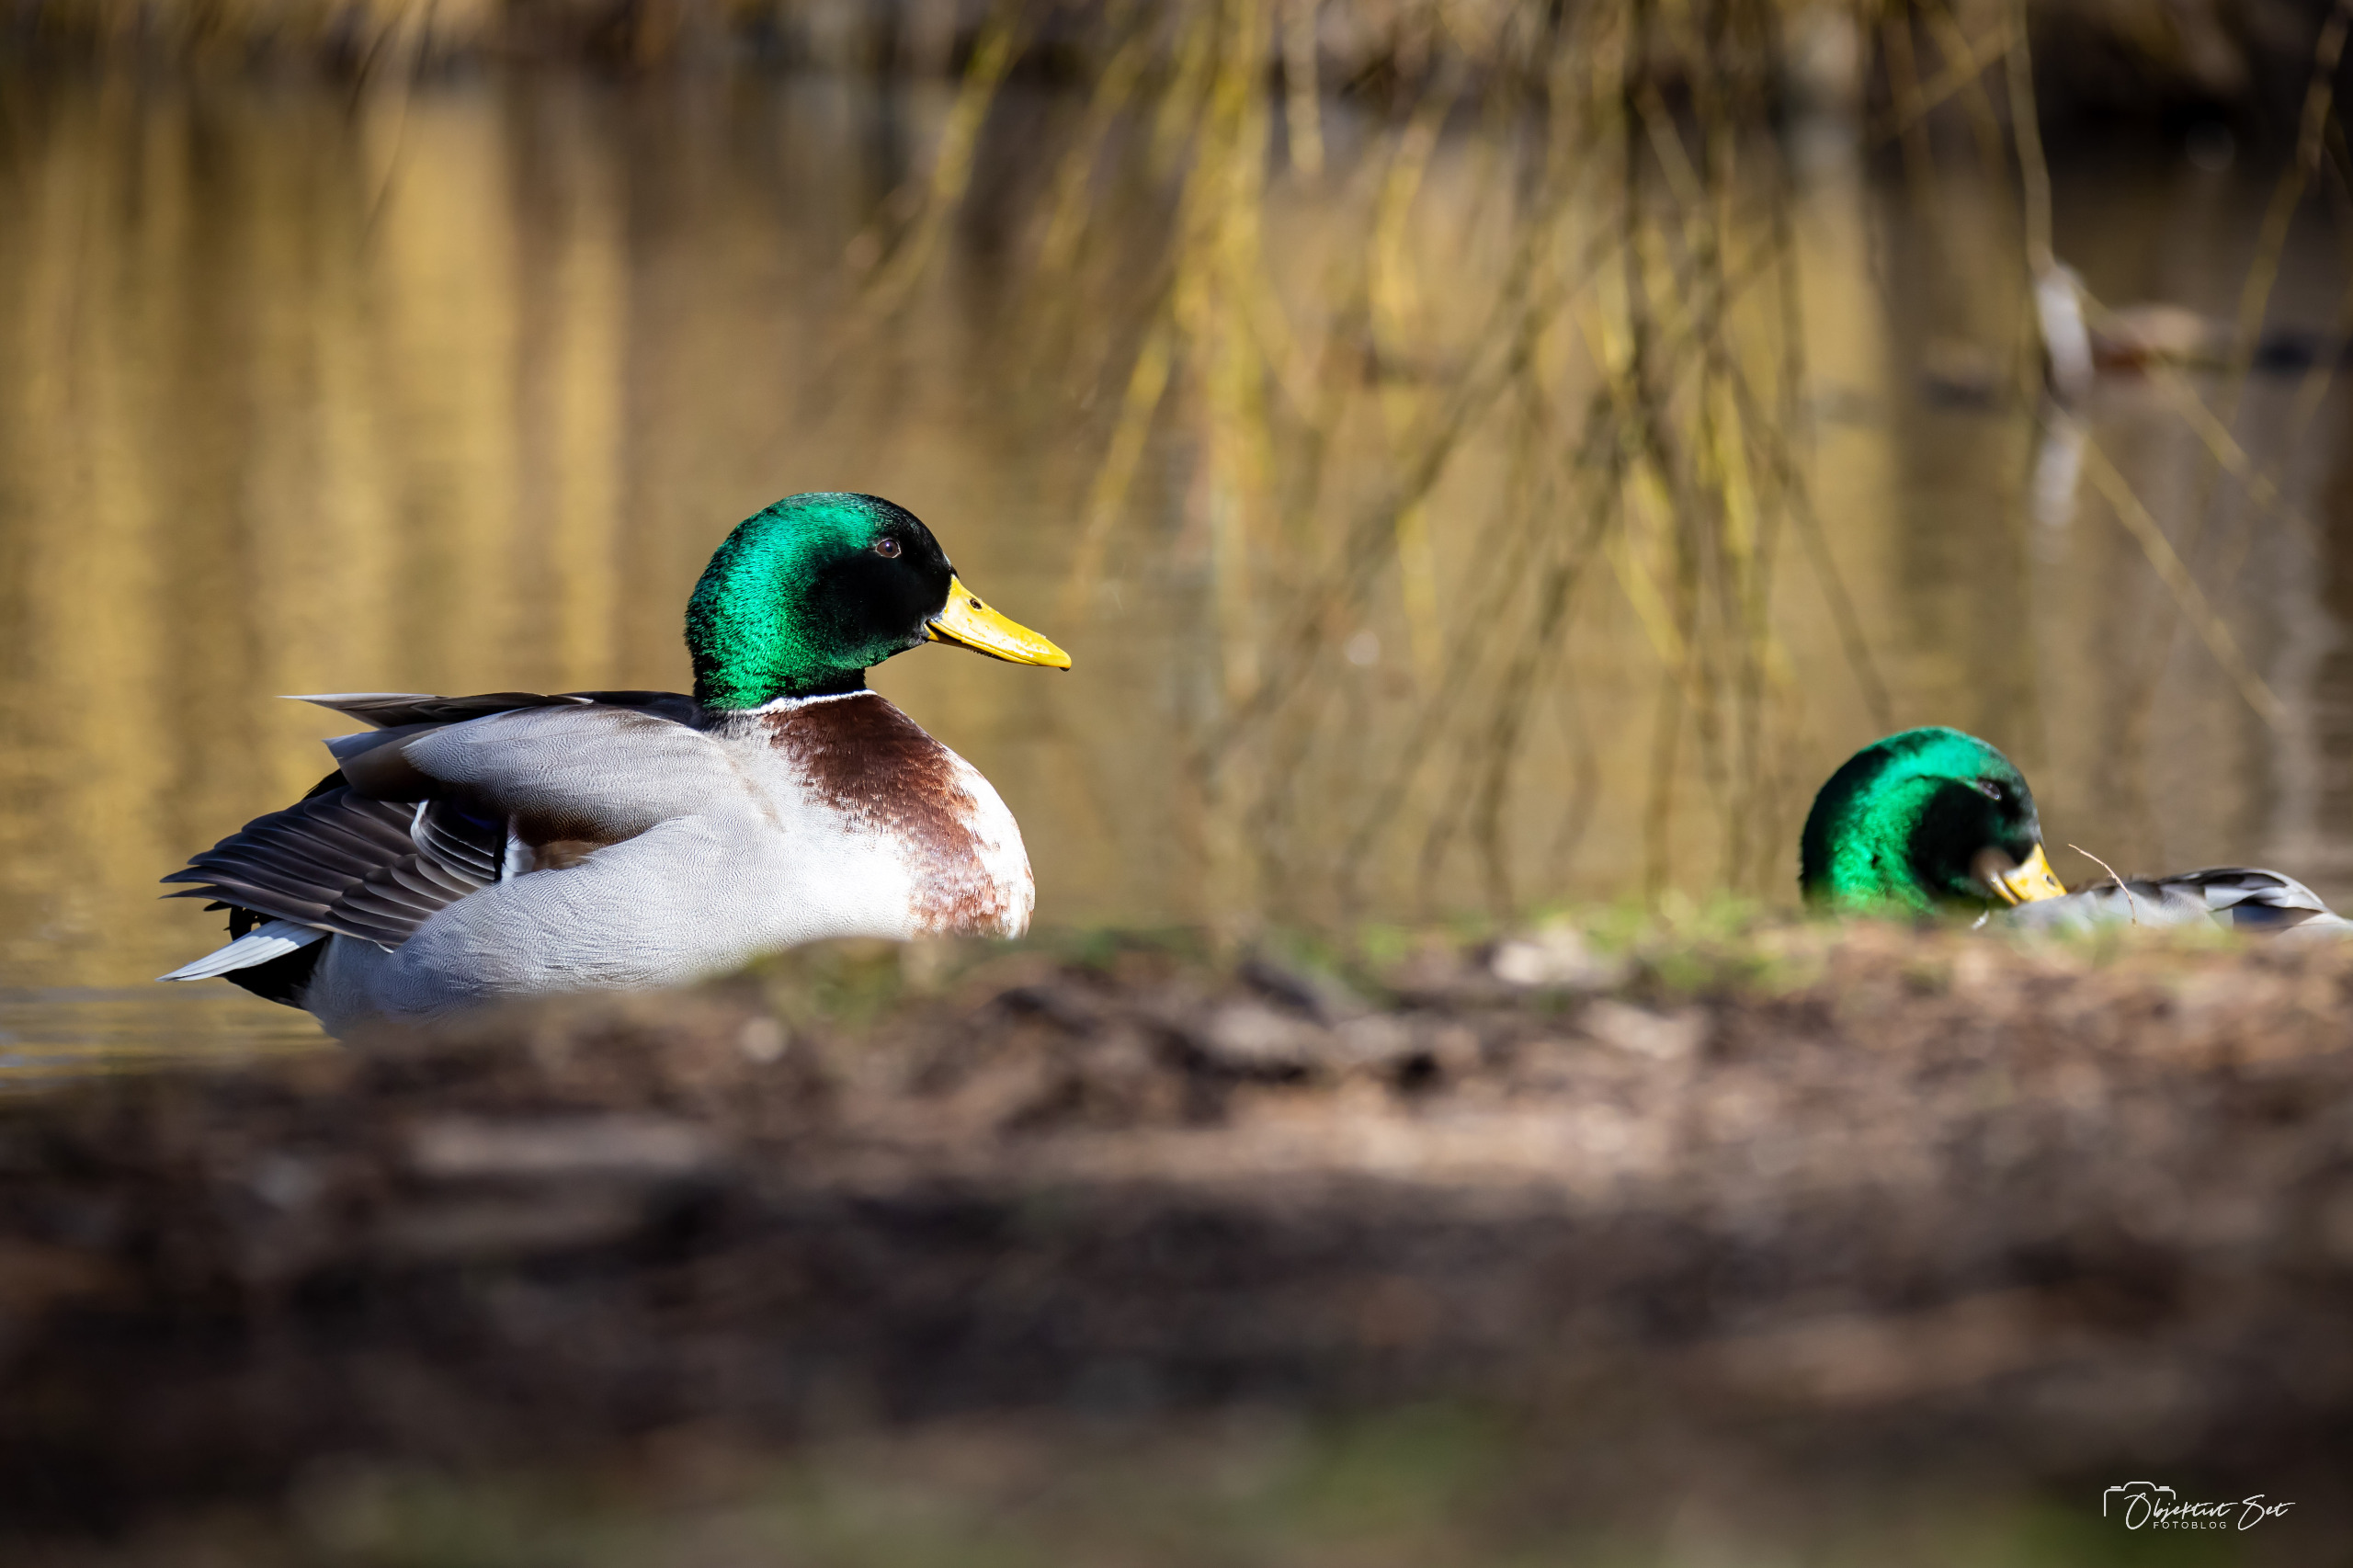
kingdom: Animalia
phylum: Chordata
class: Aves
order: Anseriformes
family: Anatidae
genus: Anas
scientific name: Anas platyrhynchos
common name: Gråand
